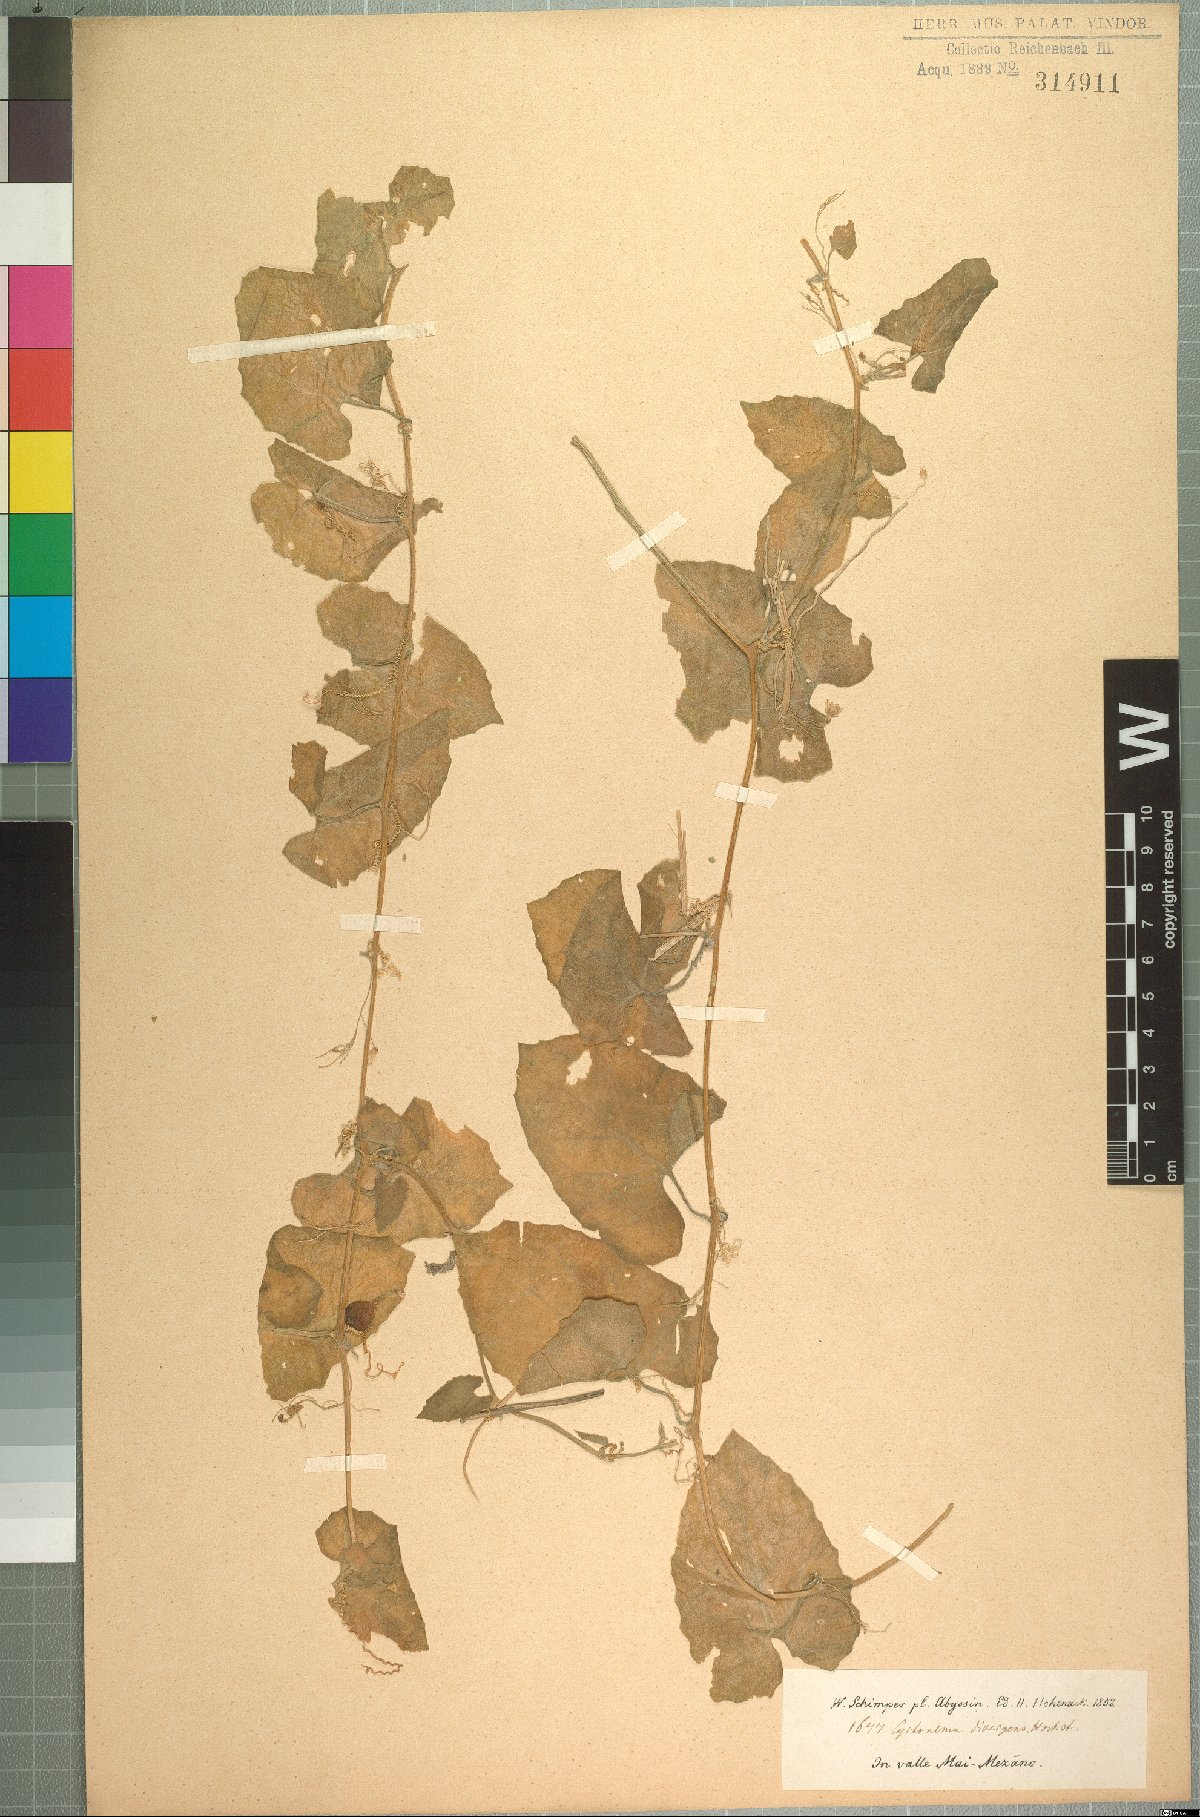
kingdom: Plantae
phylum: Tracheophyta
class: Magnoliopsida
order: Cucurbitales
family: Cucurbitaceae
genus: Kedrostis
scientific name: Kedrostis foetidissima
